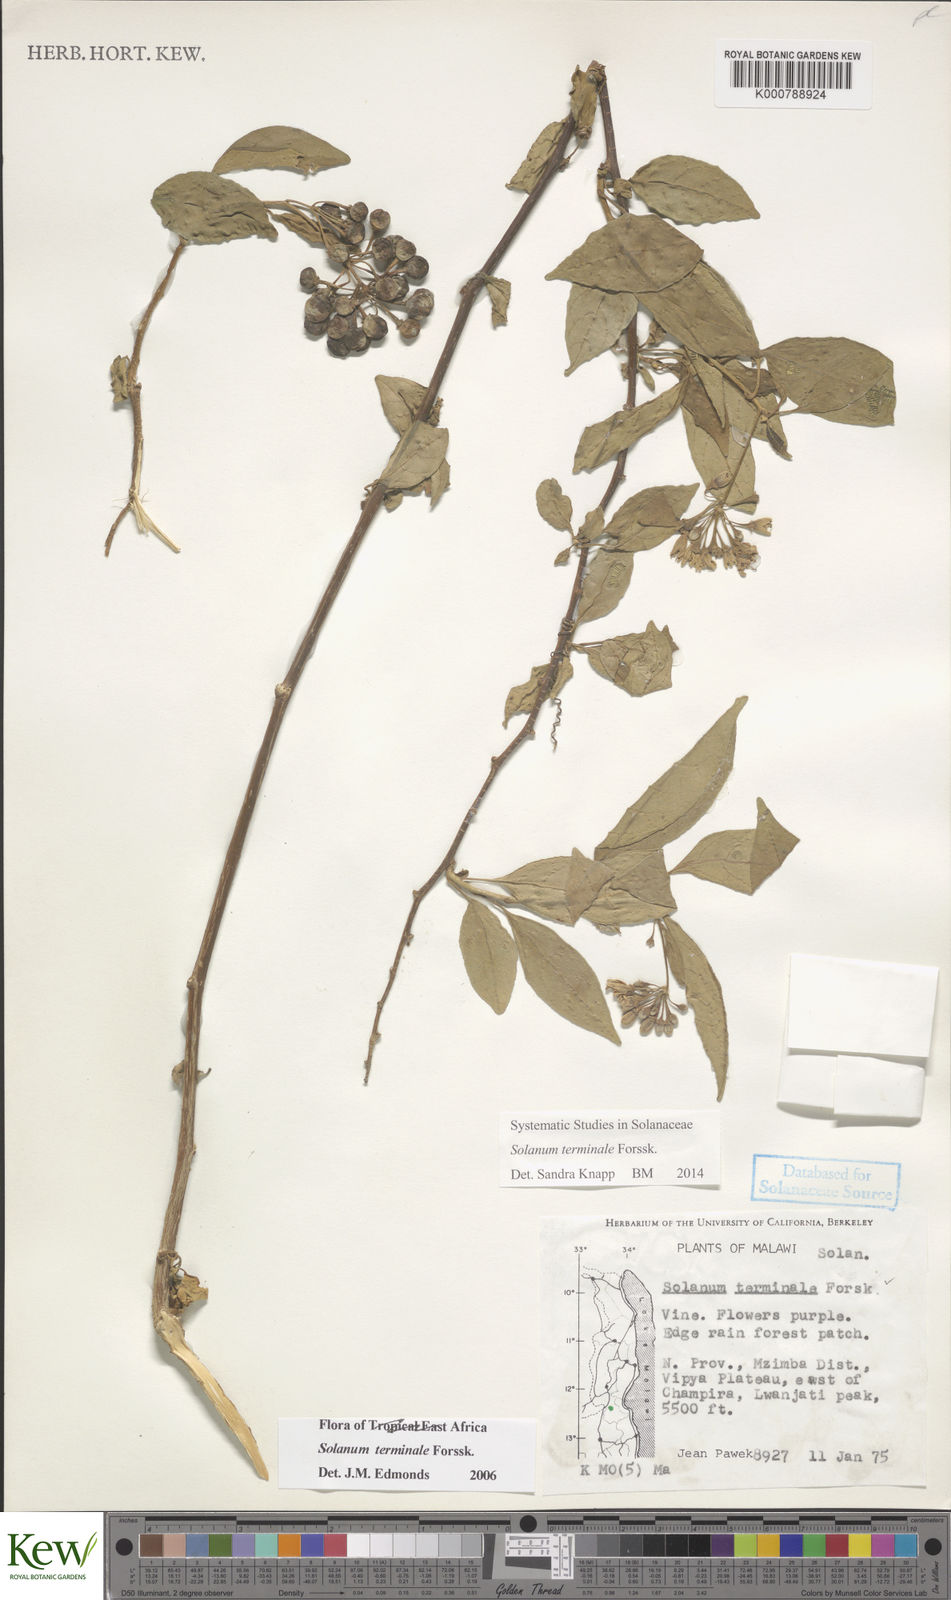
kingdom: Plantae
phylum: Tracheophyta
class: Magnoliopsida
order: Solanales
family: Solanaceae
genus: Solanum
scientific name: Solanum terminale
